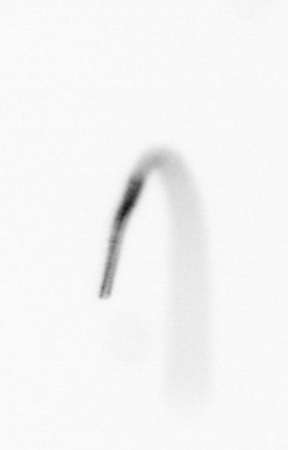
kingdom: Chromista
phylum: Ochrophyta
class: Bacillariophyceae
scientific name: Bacillariophyceae
